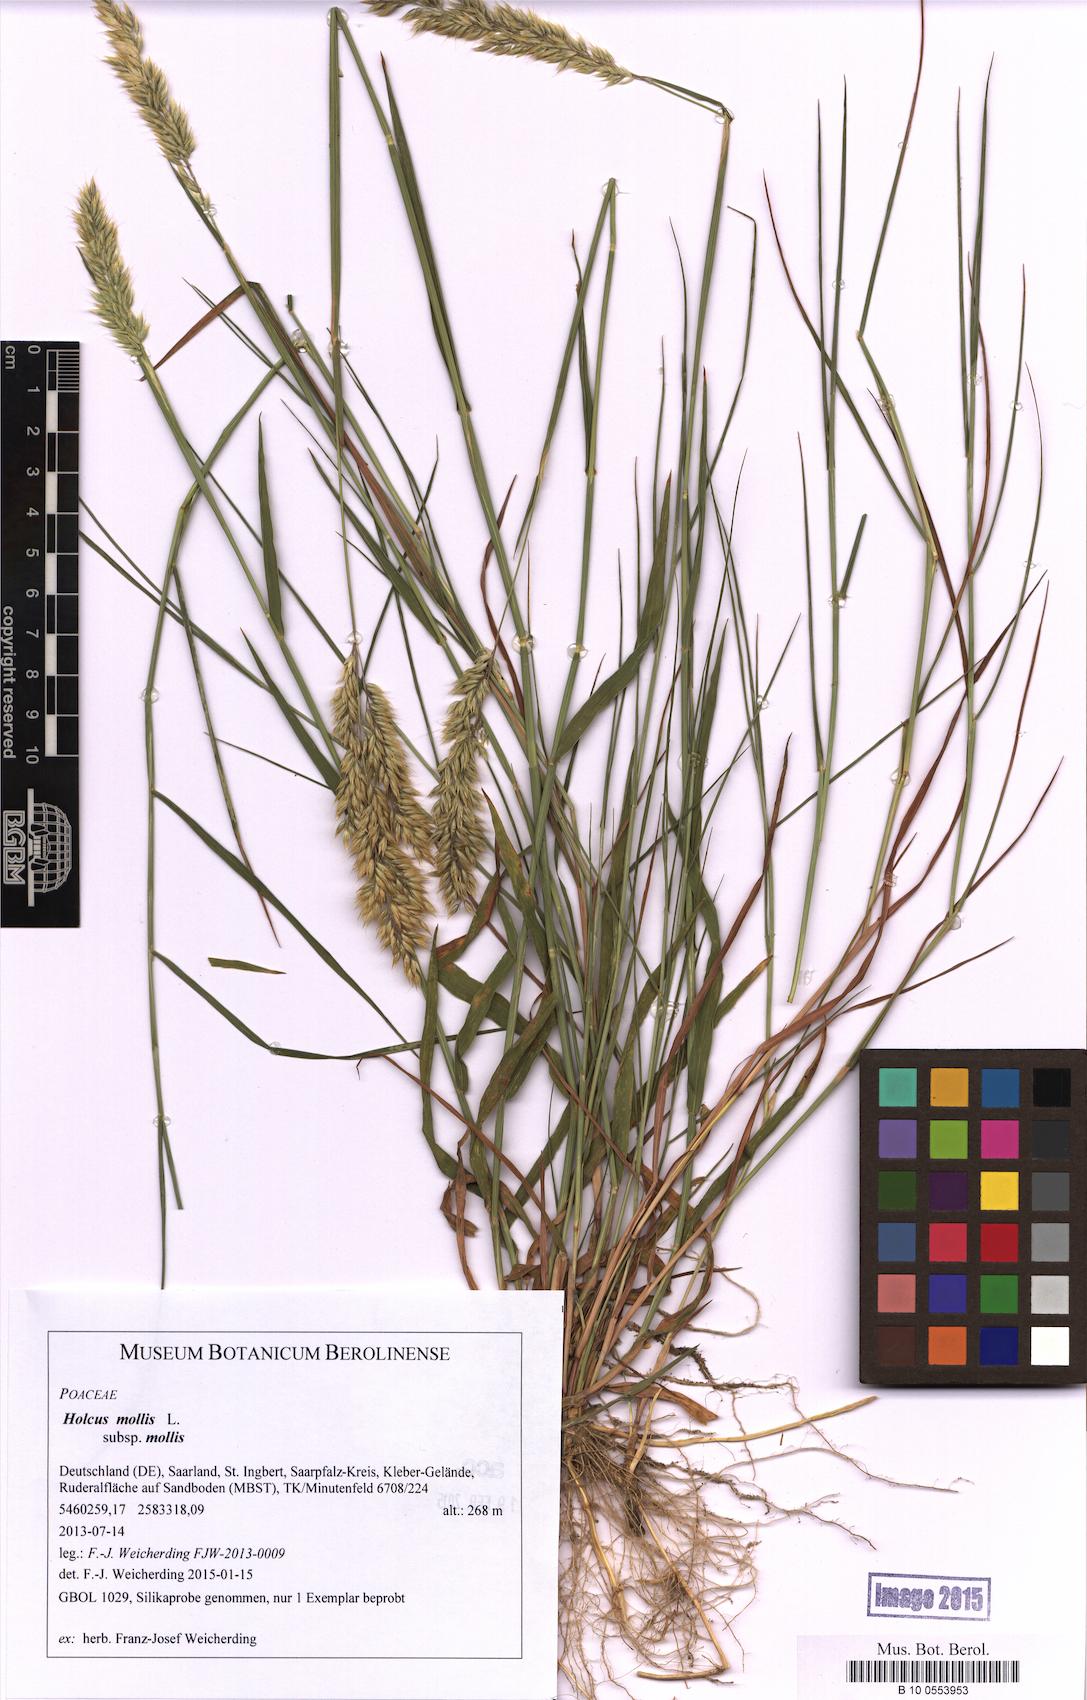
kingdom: Plantae
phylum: Tracheophyta
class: Liliopsida
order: Poales
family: Poaceae
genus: Holcus
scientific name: Holcus mollis
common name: Creeping velvetgrass
